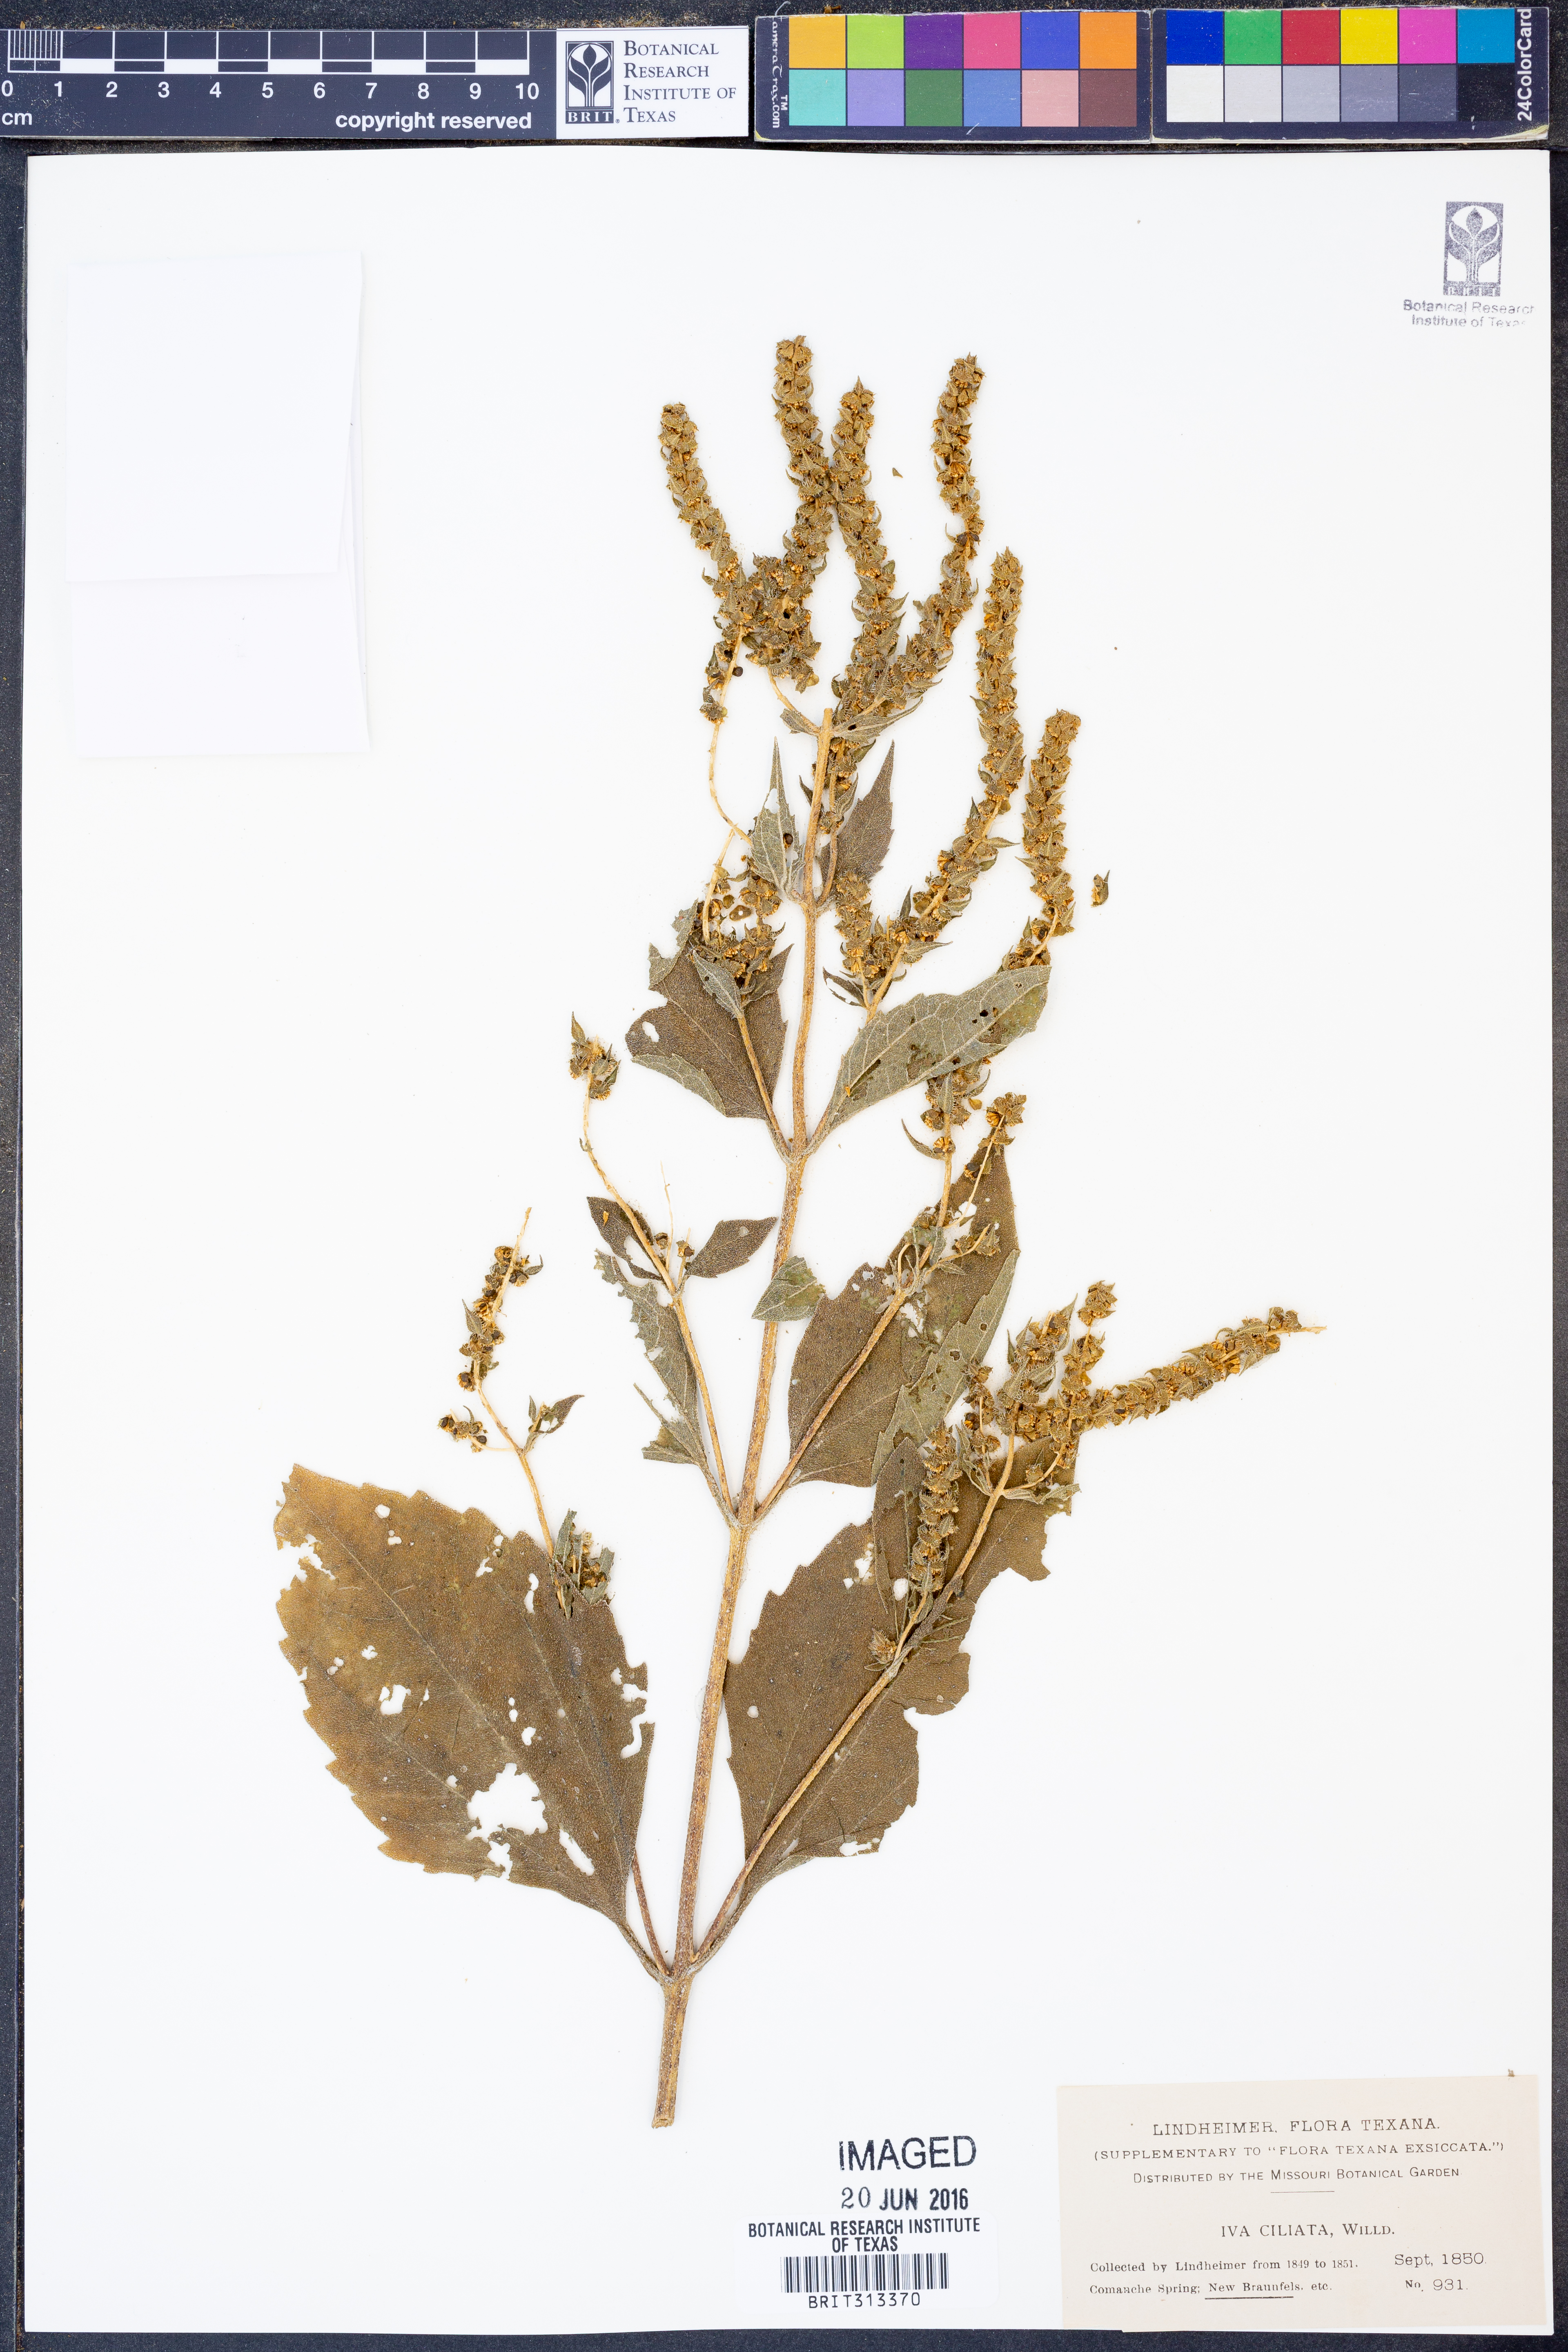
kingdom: Plantae
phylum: Tracheophyta
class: Magnoliopsida
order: Asterales
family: Asteraceae
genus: Iva
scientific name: Iva annua
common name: Marsh-elder
